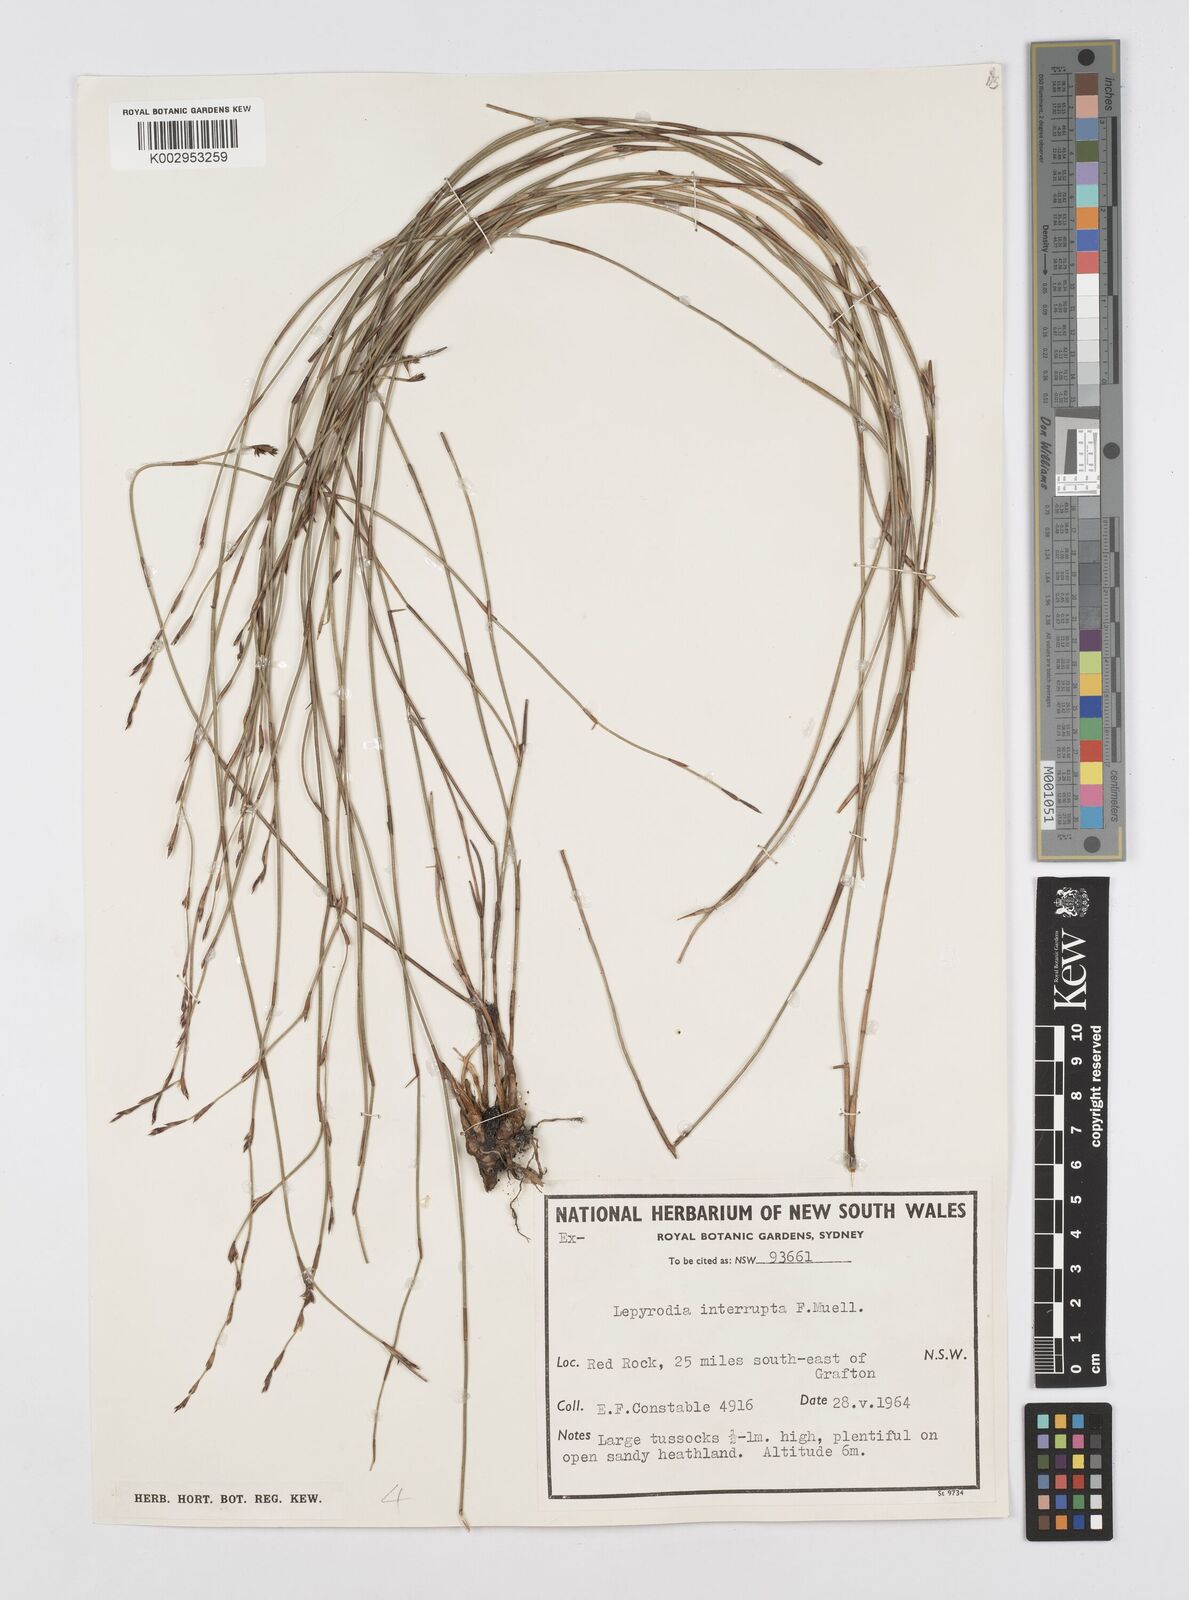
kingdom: Plantae
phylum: Tracheophyta
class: Liliopsida
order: Poales
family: Restionaceae
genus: Sporadanthus
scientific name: Sporadanthus interruptus
